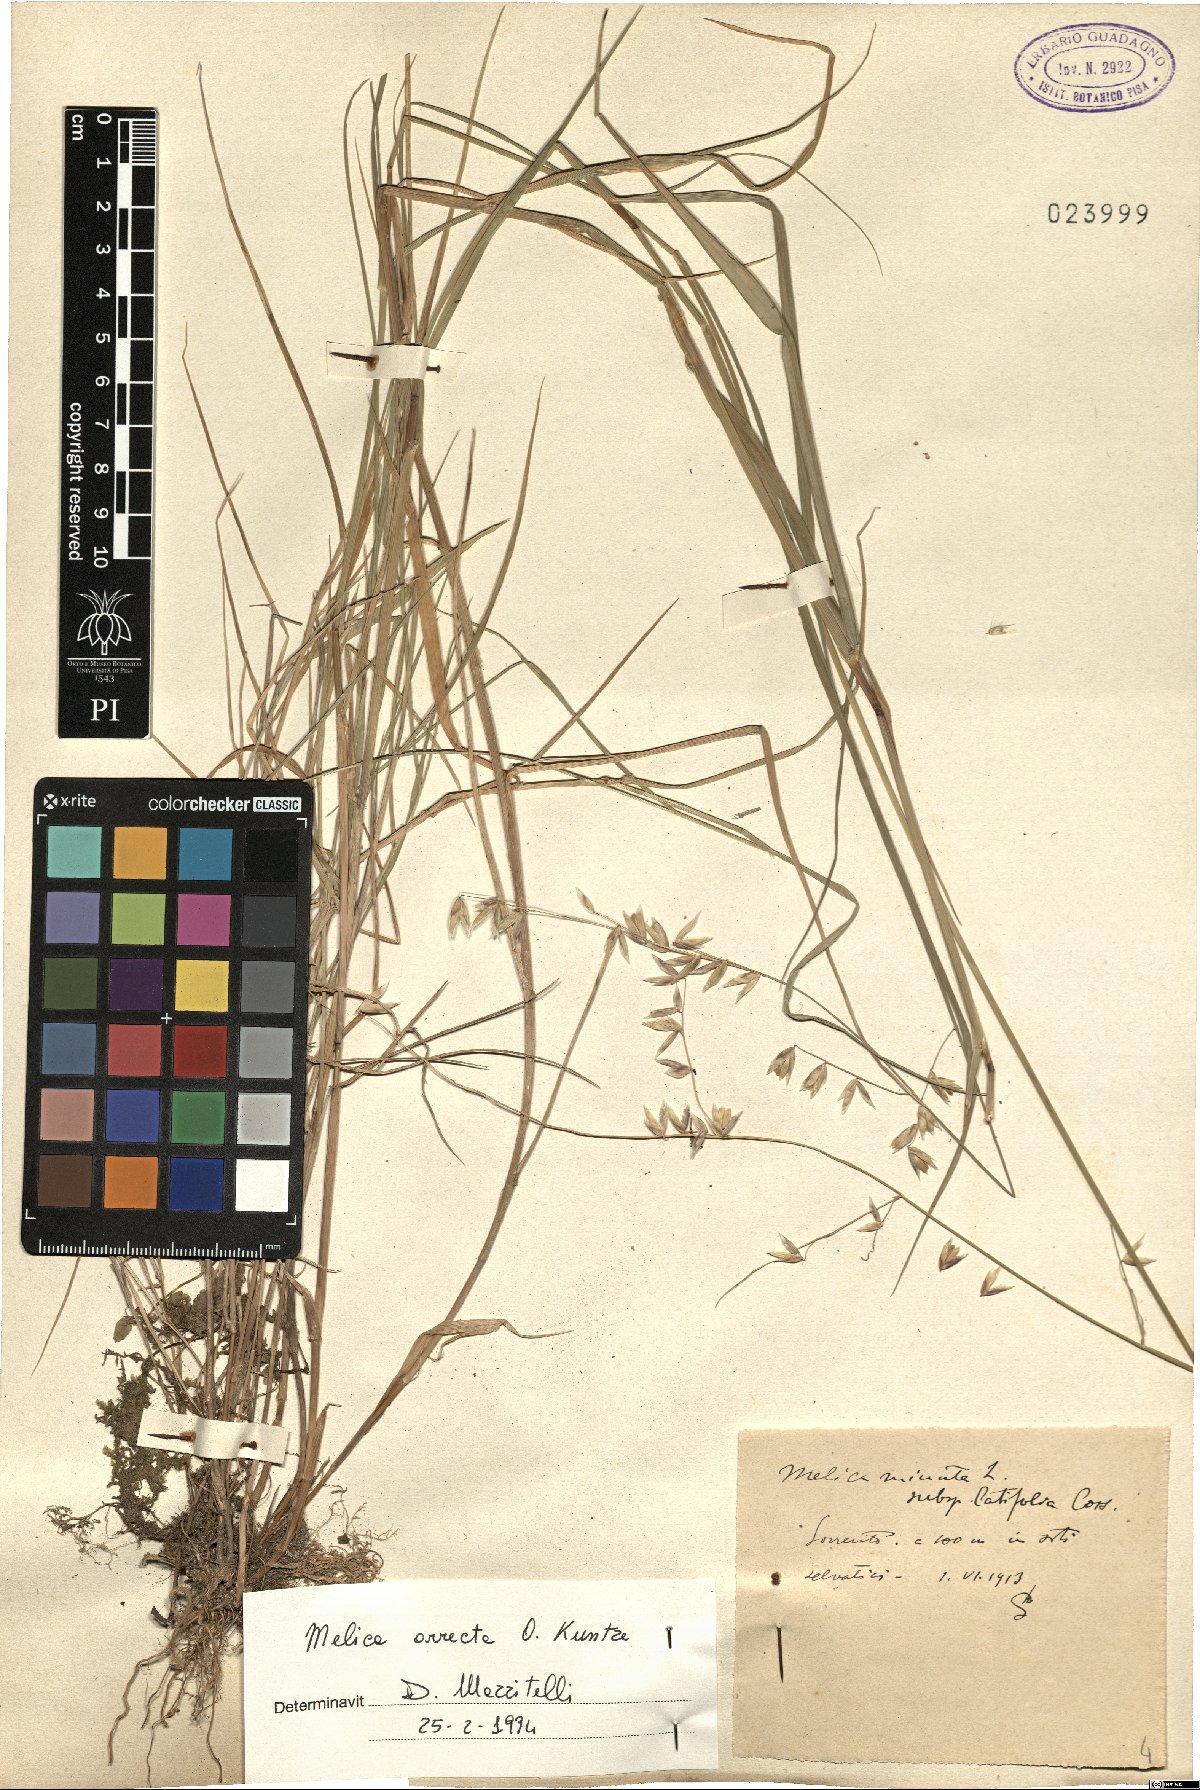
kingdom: Plantae
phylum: Tracheophyta
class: Liliopsida
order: Poales
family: Poaceae
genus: Melica
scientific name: Melica minuta
